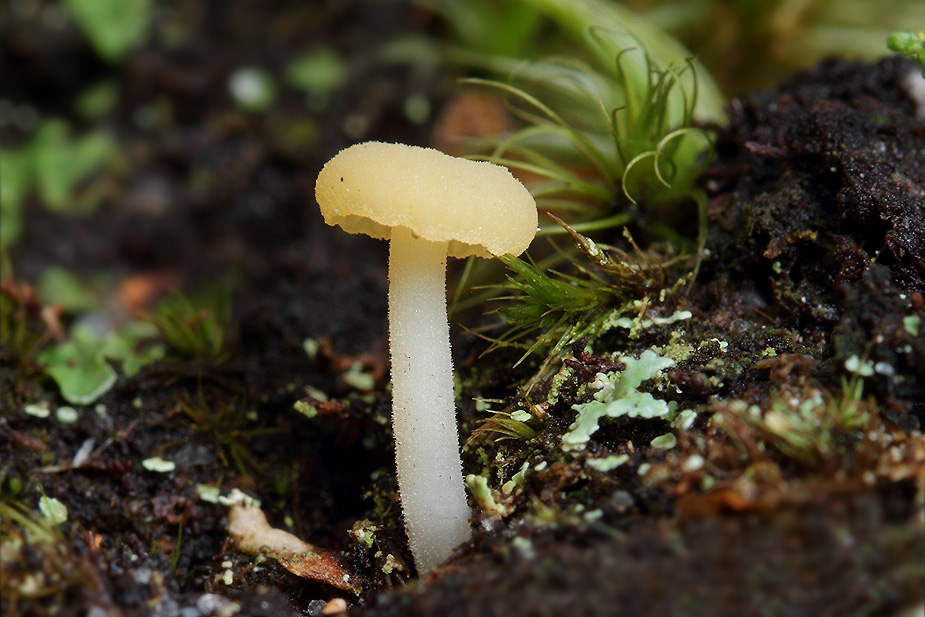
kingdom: Fungi
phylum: Basidiomycota
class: Agaricomycetes
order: Agaricales
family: Hygrophoraceae
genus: Lichenomphalia
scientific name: Lichenomphalia hudsoniana
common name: thallus-lavhat
